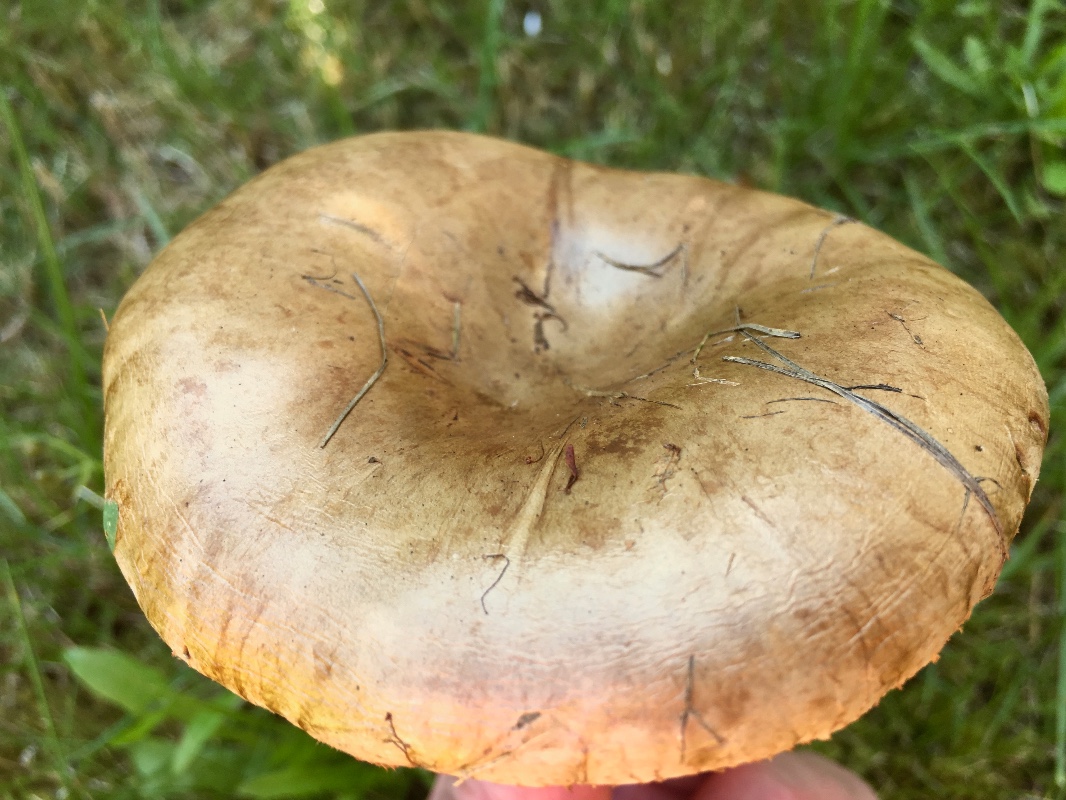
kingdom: Fungi
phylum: Basidiomycota
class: Agaricomycetes
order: Boletales
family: Paxillaceae
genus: Paxillus
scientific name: Paxillus ammoniavirescens
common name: olivensporet netbladhat
